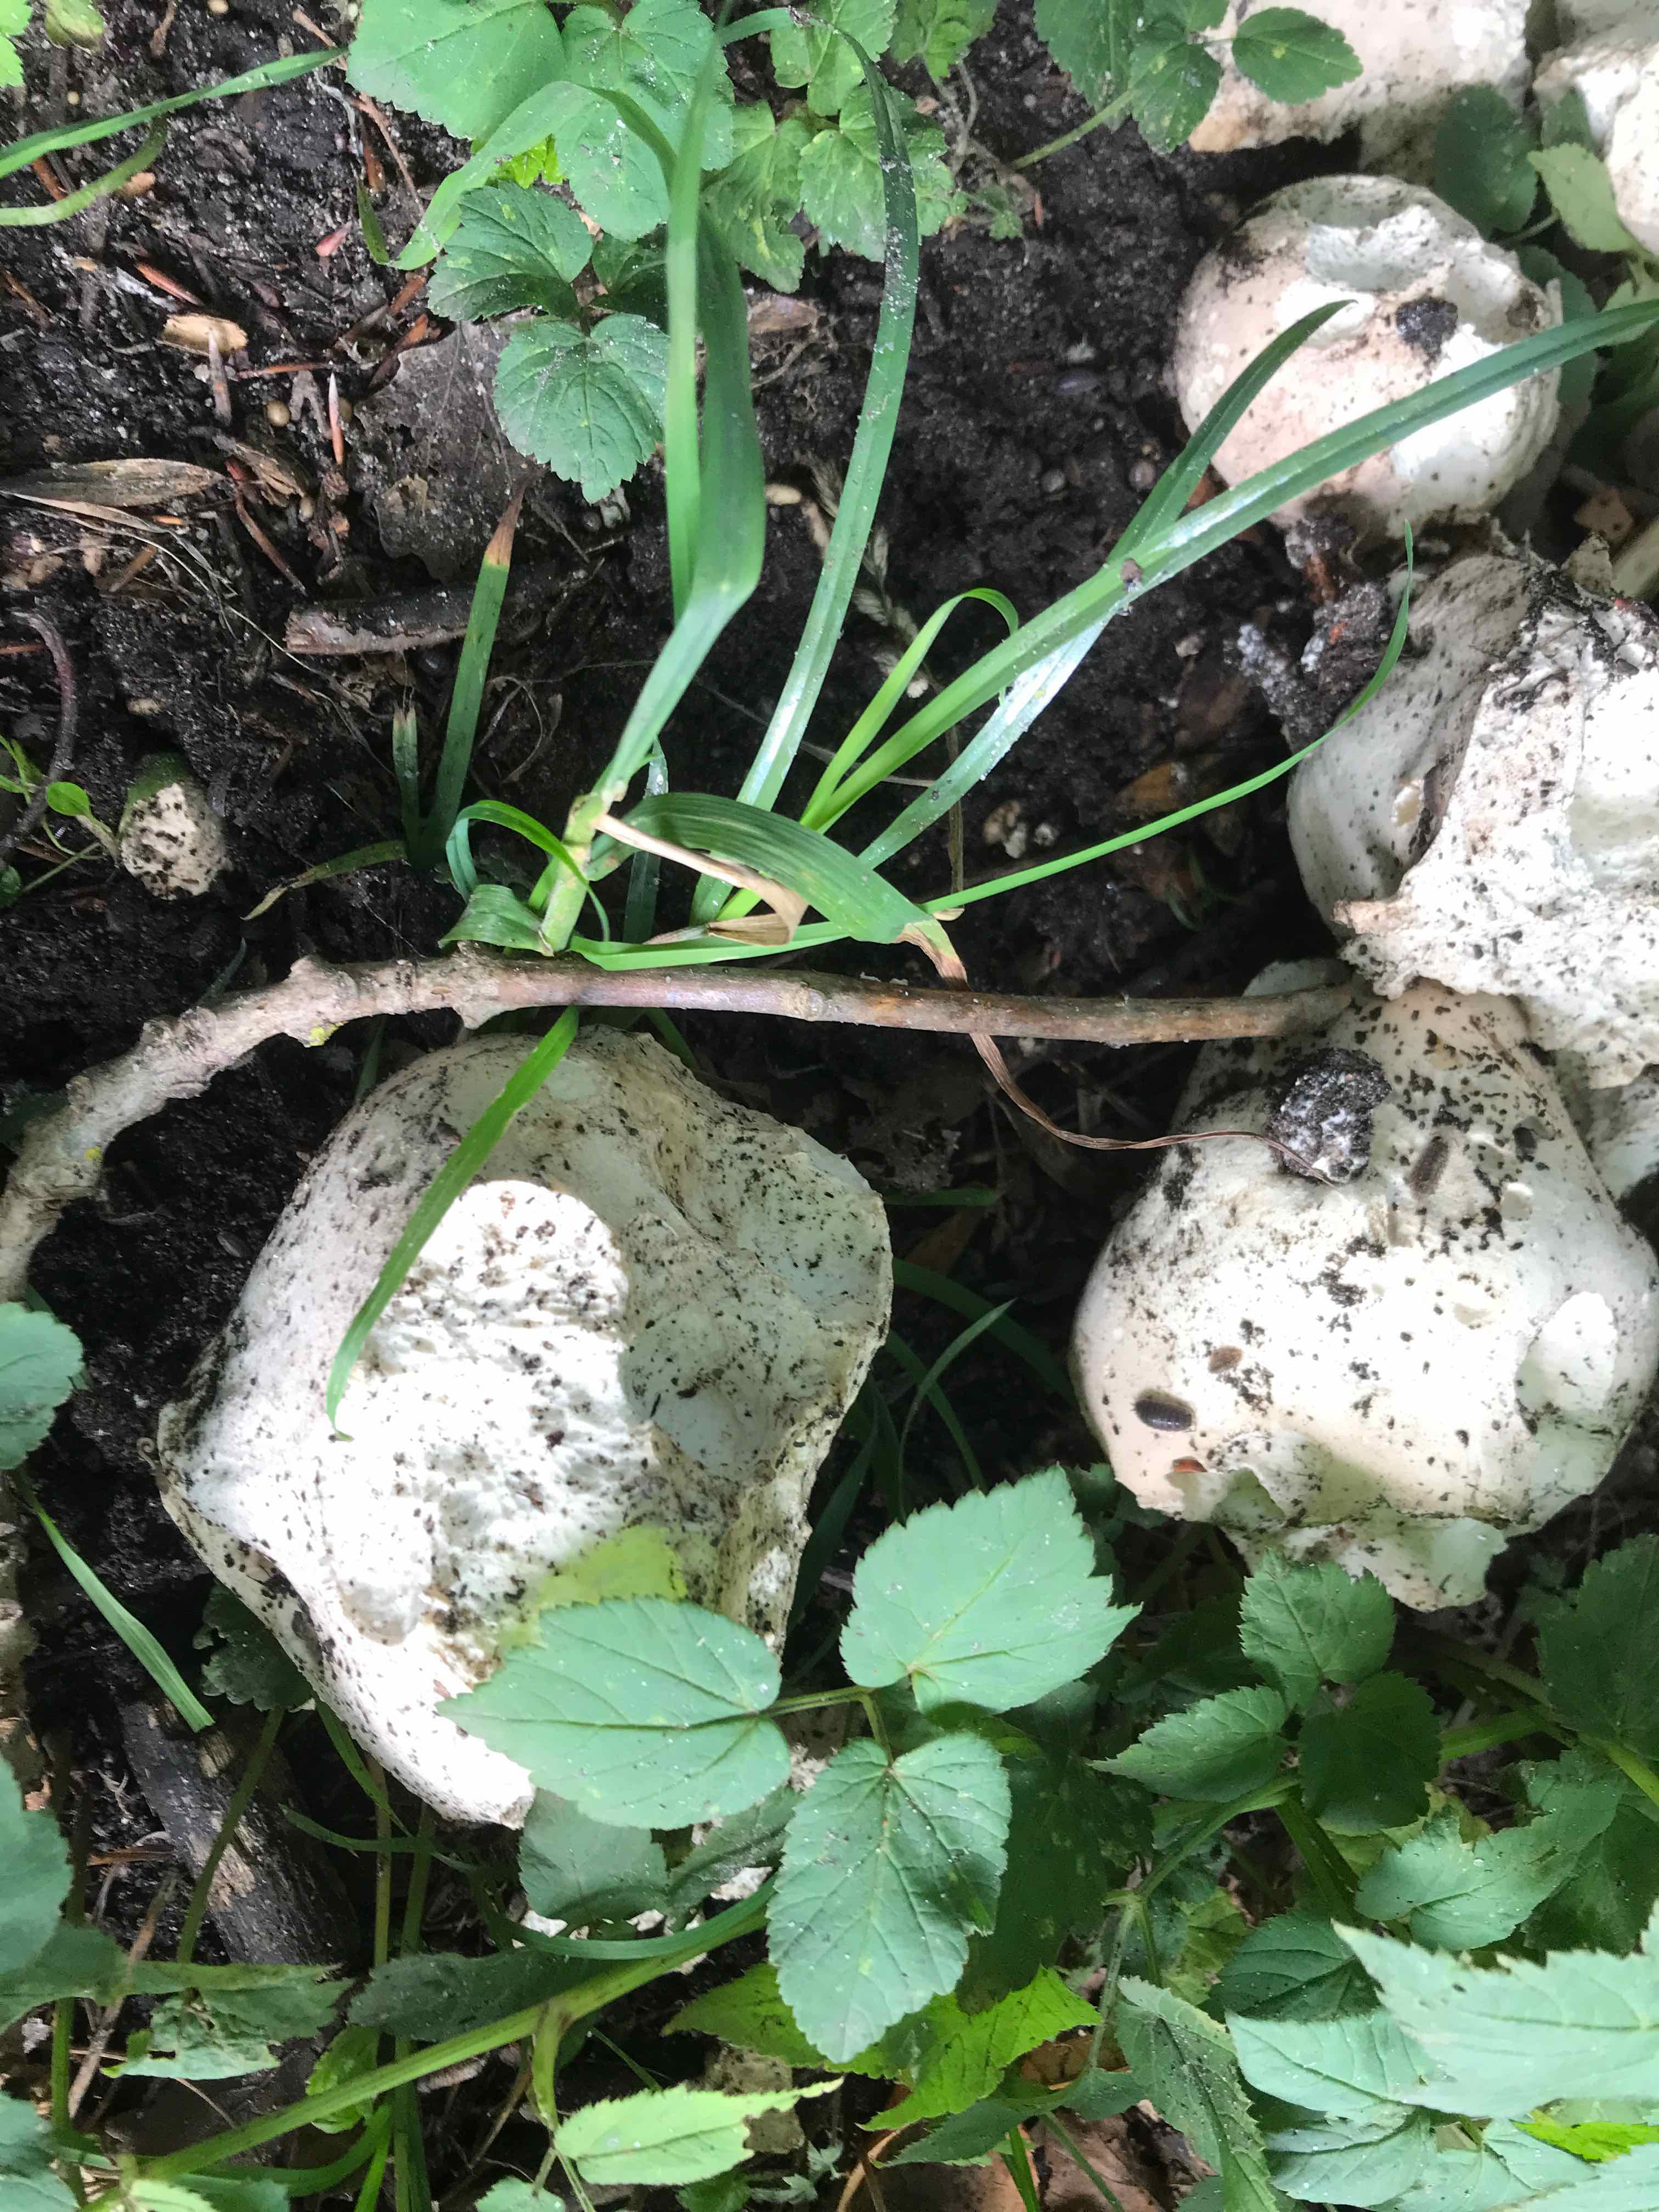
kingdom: Fungi
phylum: Basidiomycota
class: Agaricomycetes
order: Agaricales
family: Lycoperdaceae
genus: Calvatia
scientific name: Calvatia gigantea
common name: kæmpestøvbold
